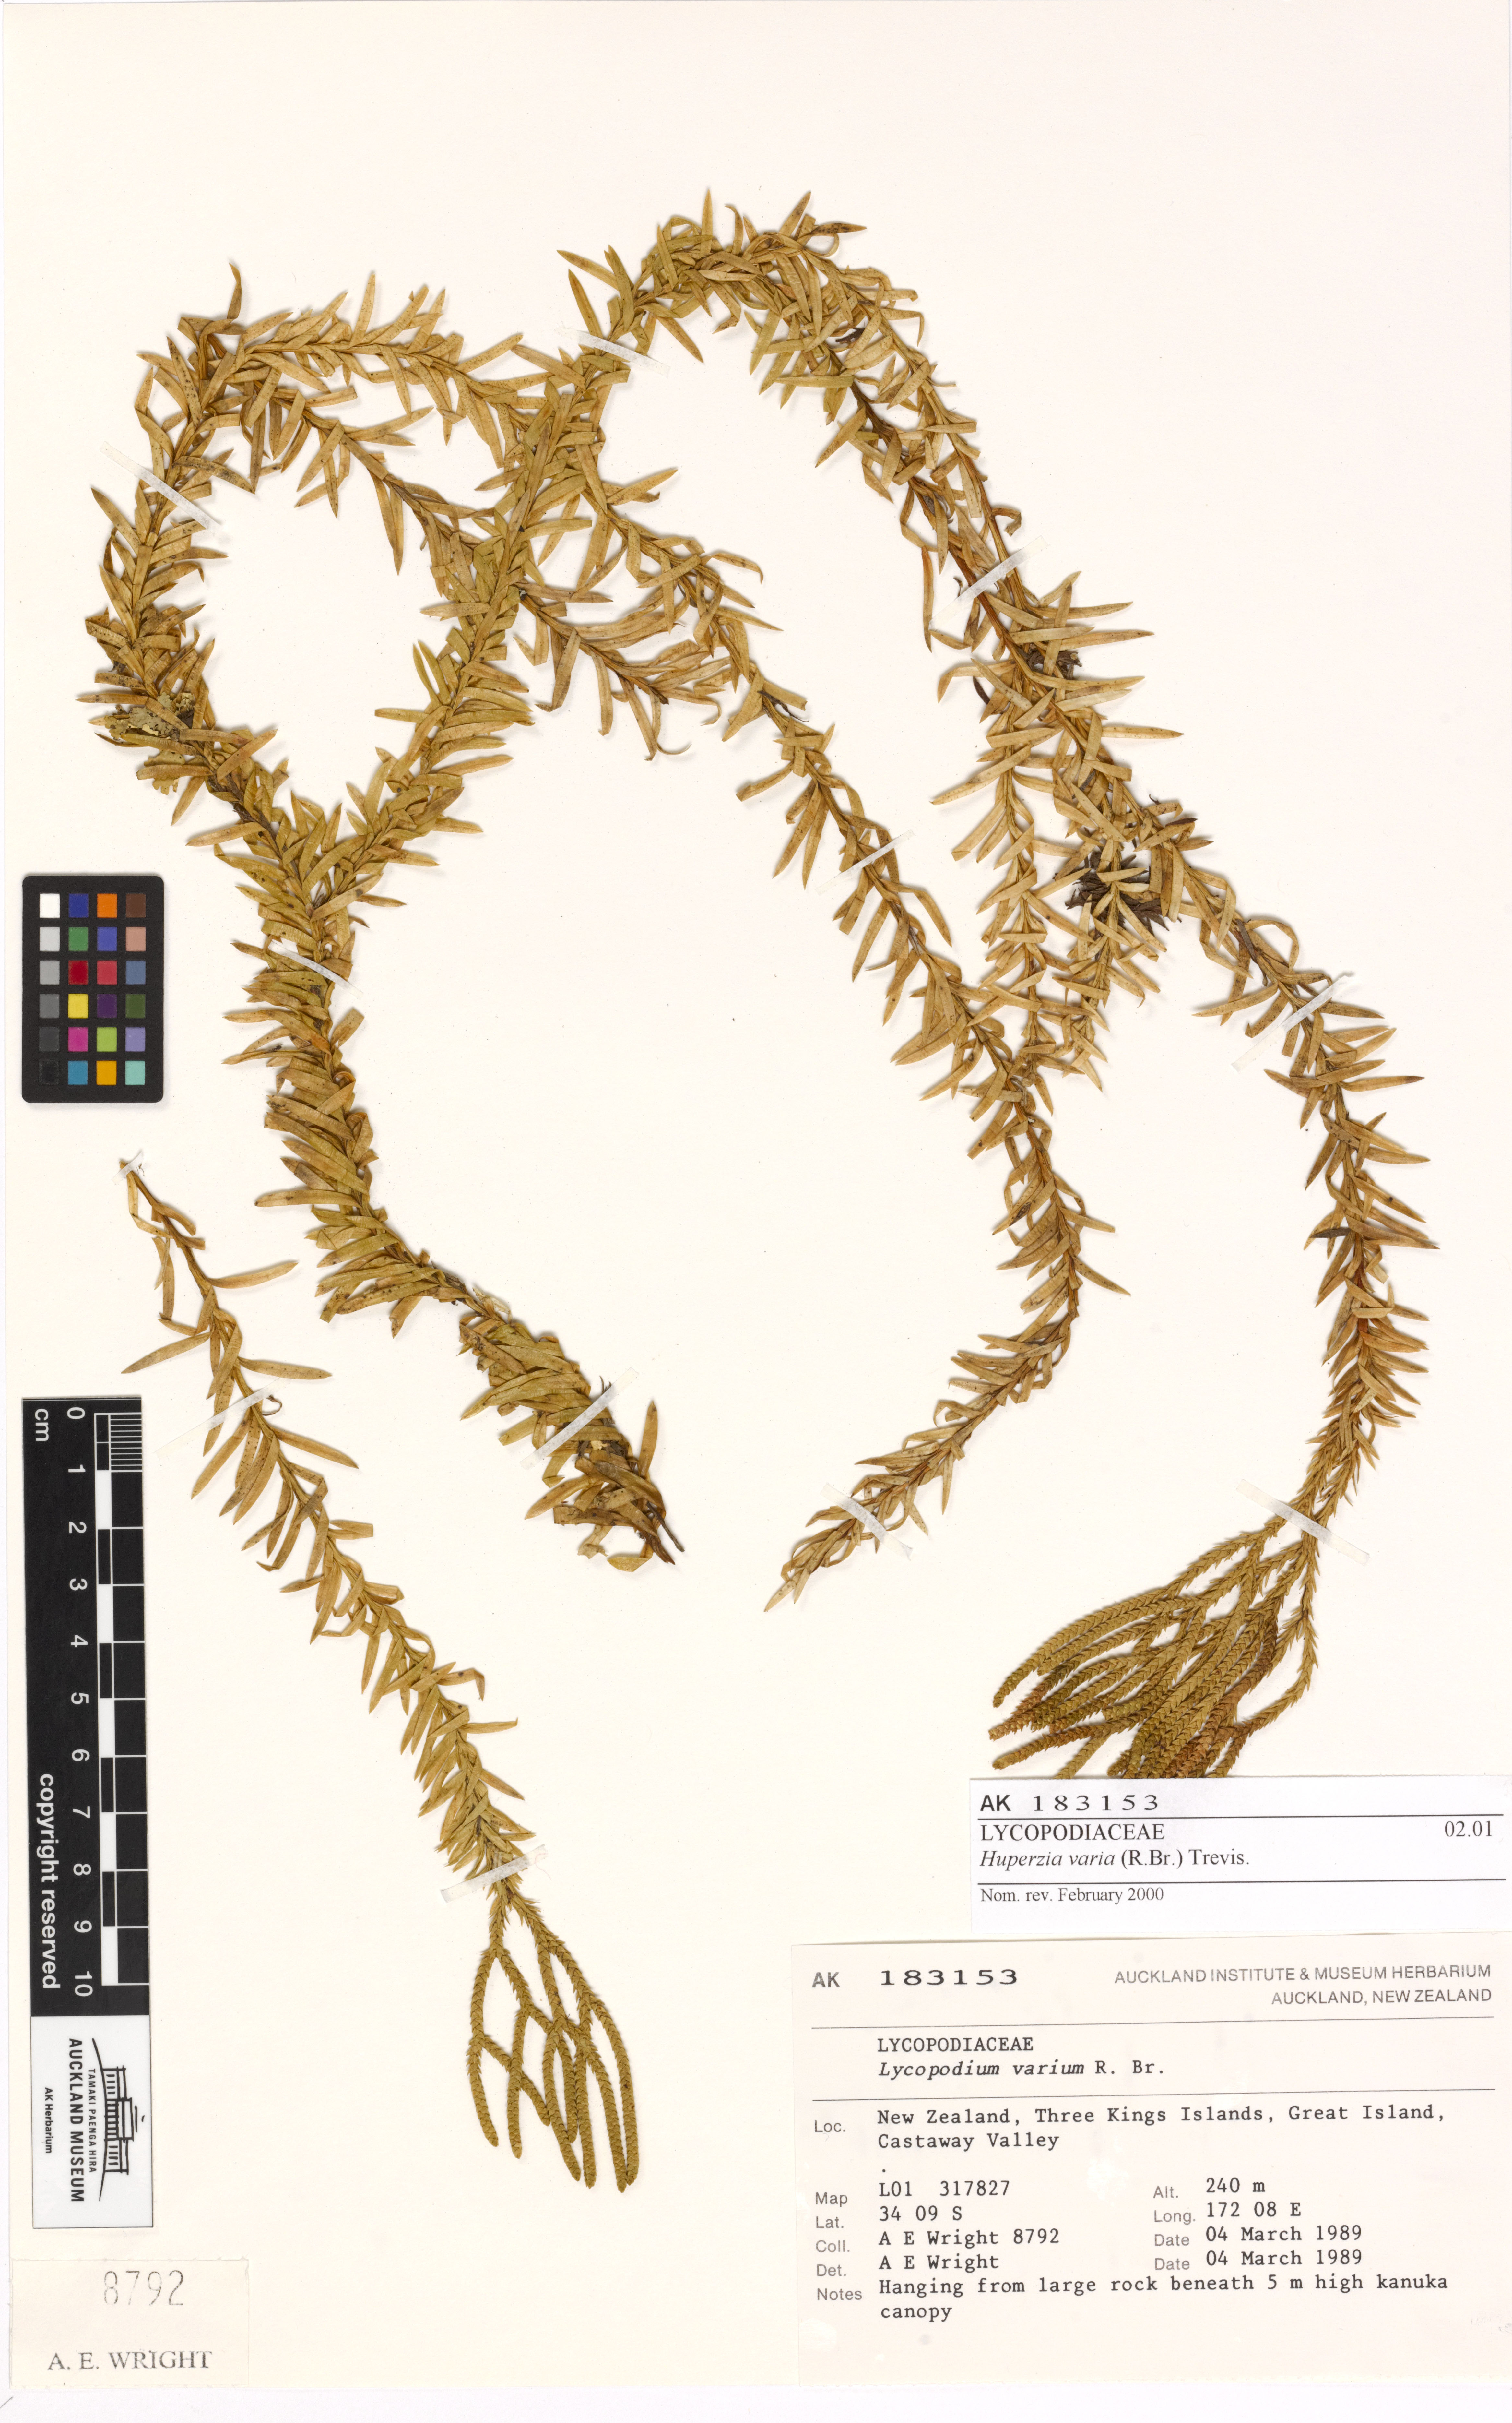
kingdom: Plantae
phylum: Tracheophyta
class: Lycopodiopsida
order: Lycopodiales
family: Lycopodiaceae
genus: Phlegmariurus
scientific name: Phlegmariurus billardierei
